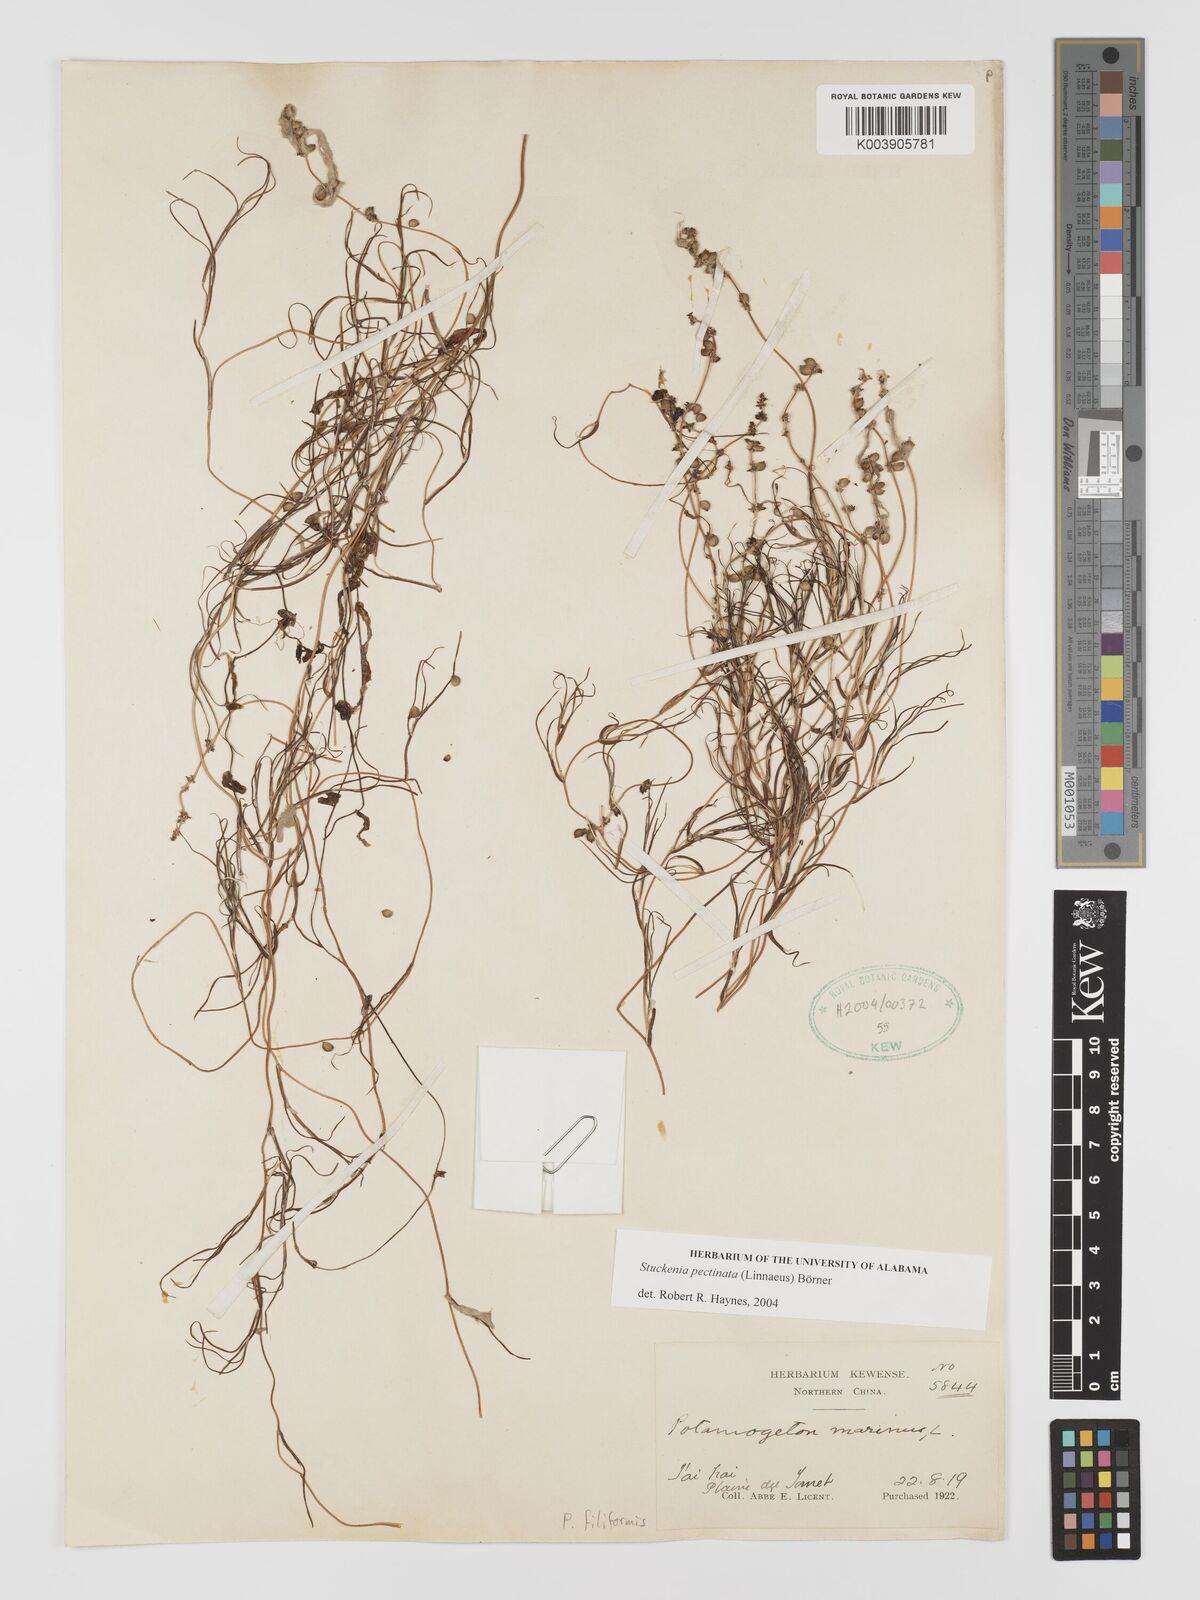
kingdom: Plantae
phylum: Tracheophyta
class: Liliopsida
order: Alismatales
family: Potamogetonaceae
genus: Stuckenia
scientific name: Stuckenia pectinata
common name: Sago pondweed
